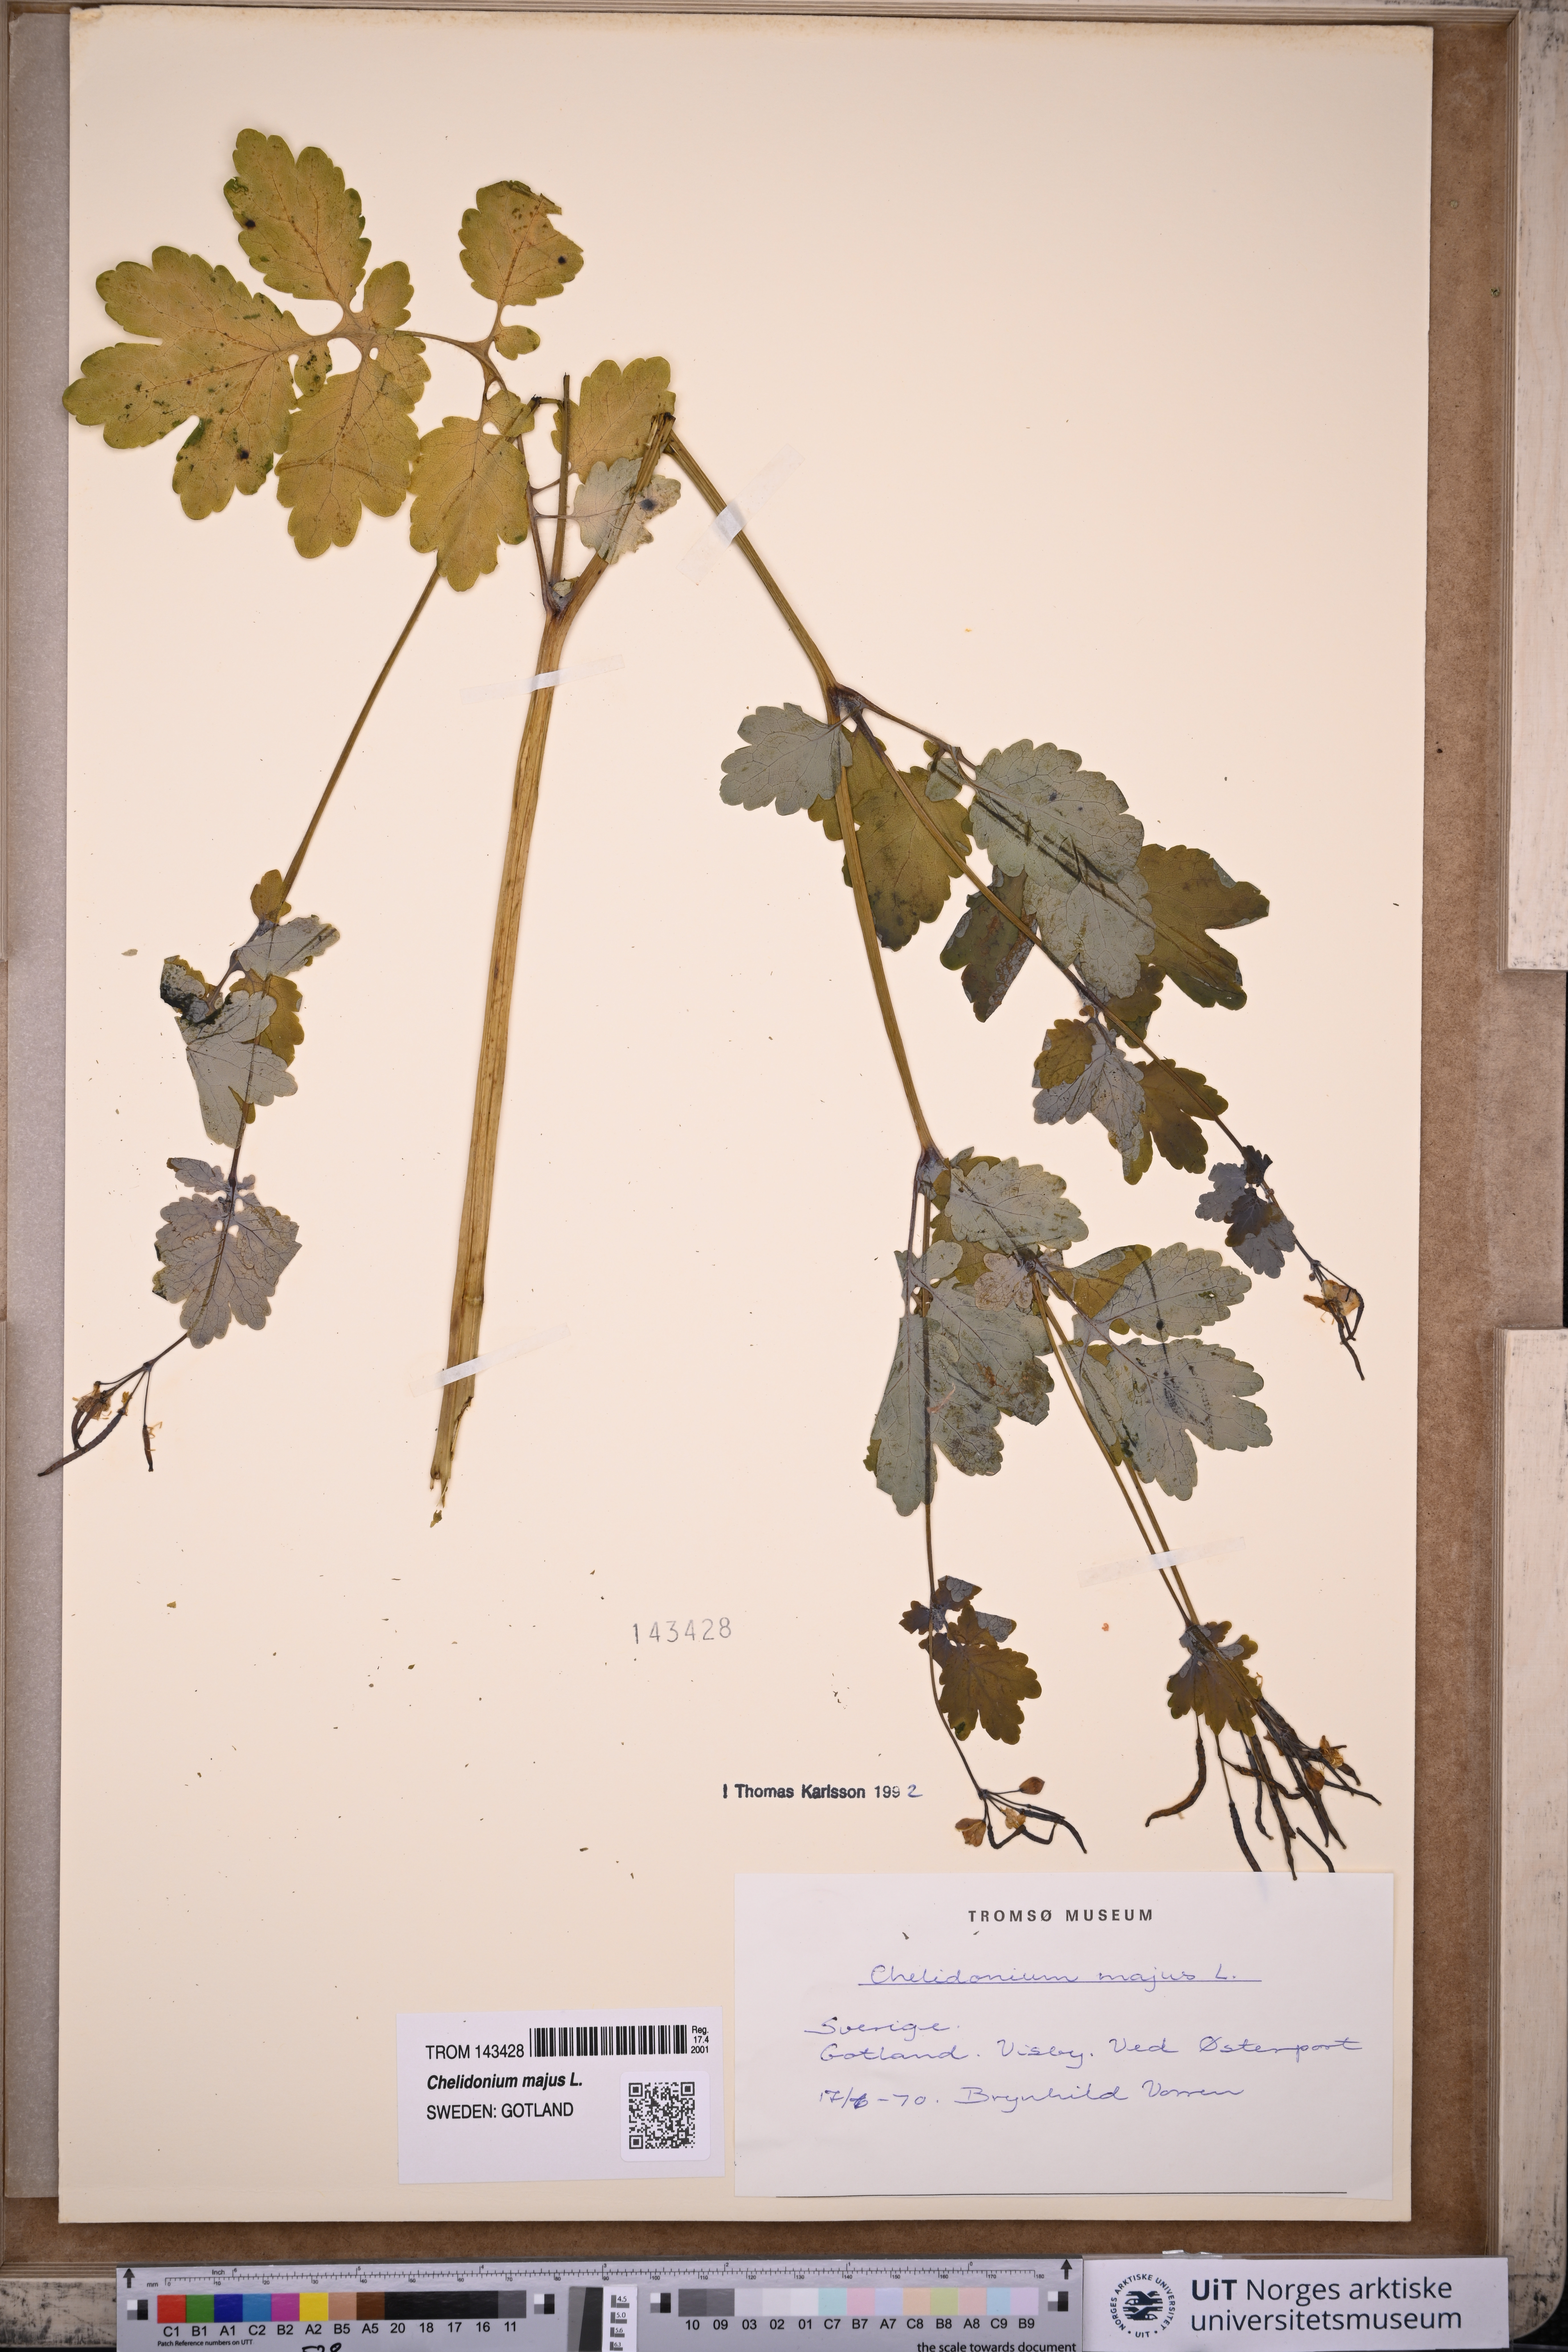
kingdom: Plantae
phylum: Tracheophyta
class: Magnoliopsida
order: Ranunculales
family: Papaveraceae
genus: Chelidonium
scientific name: Chelidonium majus
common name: Greater celandine
